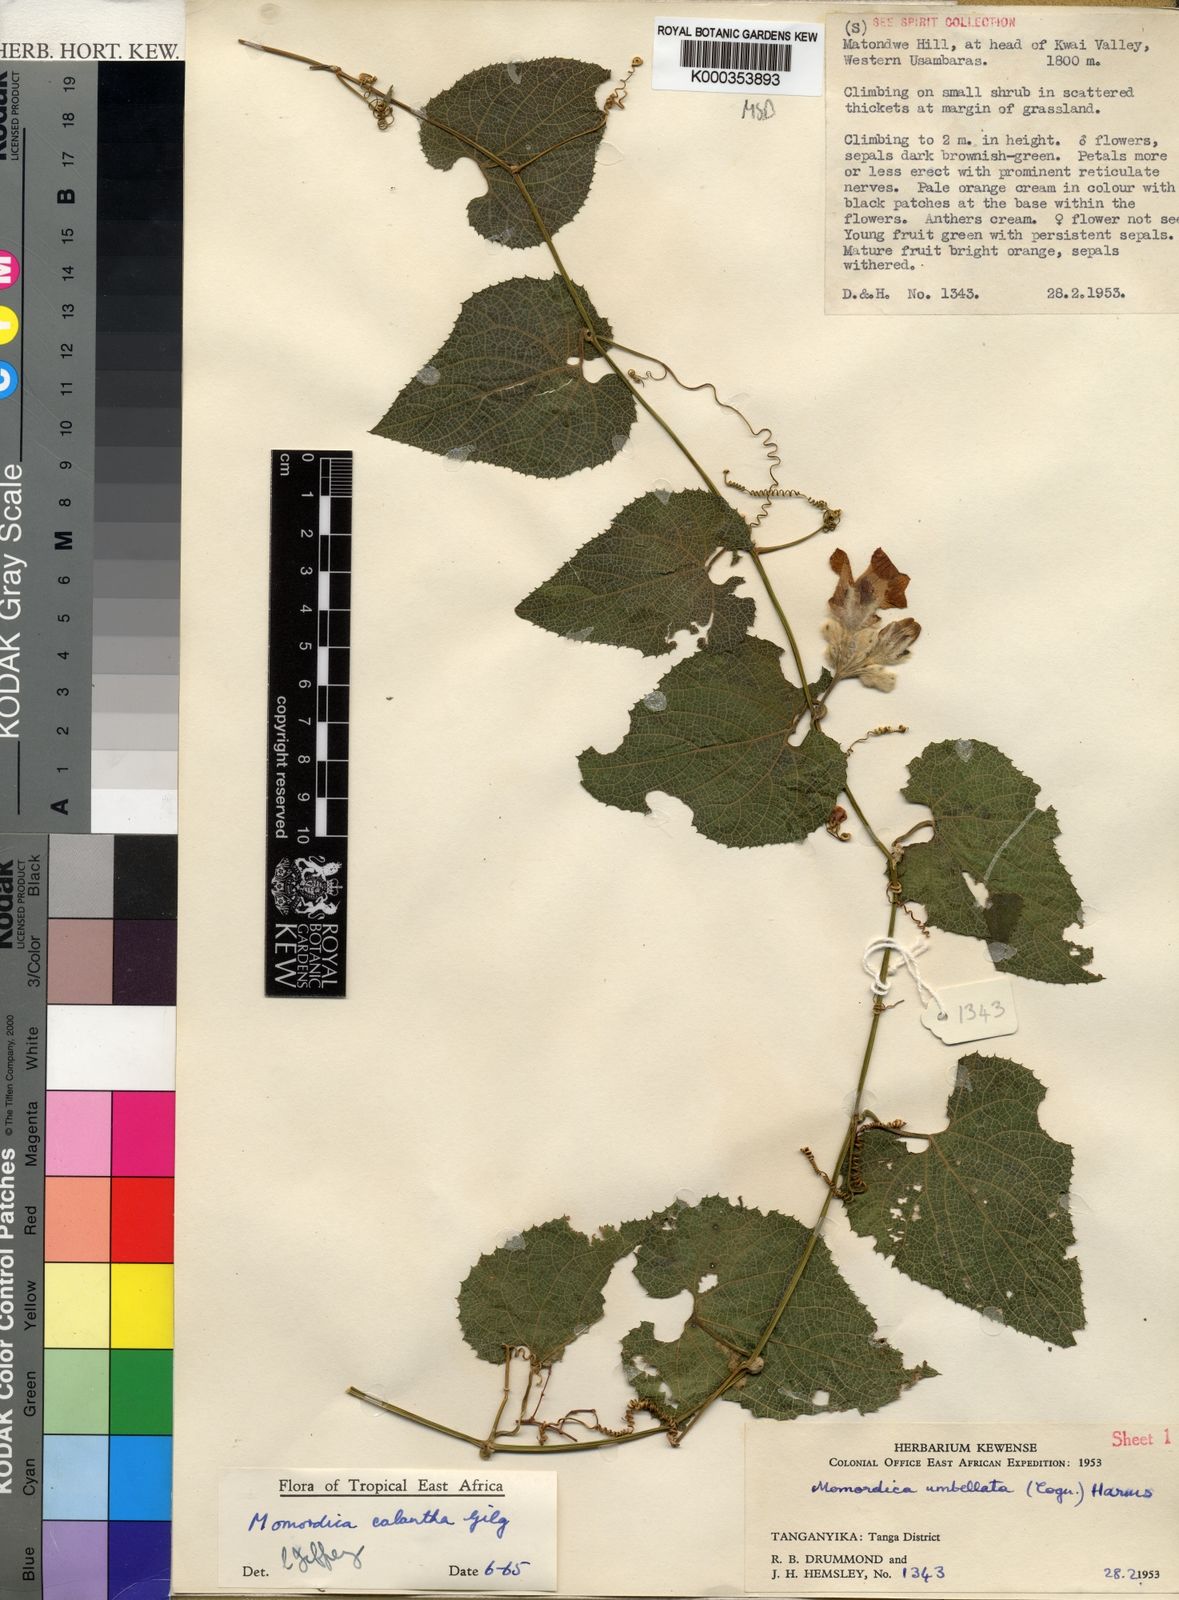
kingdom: Plantae
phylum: Tracheophyta
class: Magnoliopsida
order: Cucurbitales
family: Cucurbitaceae
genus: Momordica
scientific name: Momordica calantha
